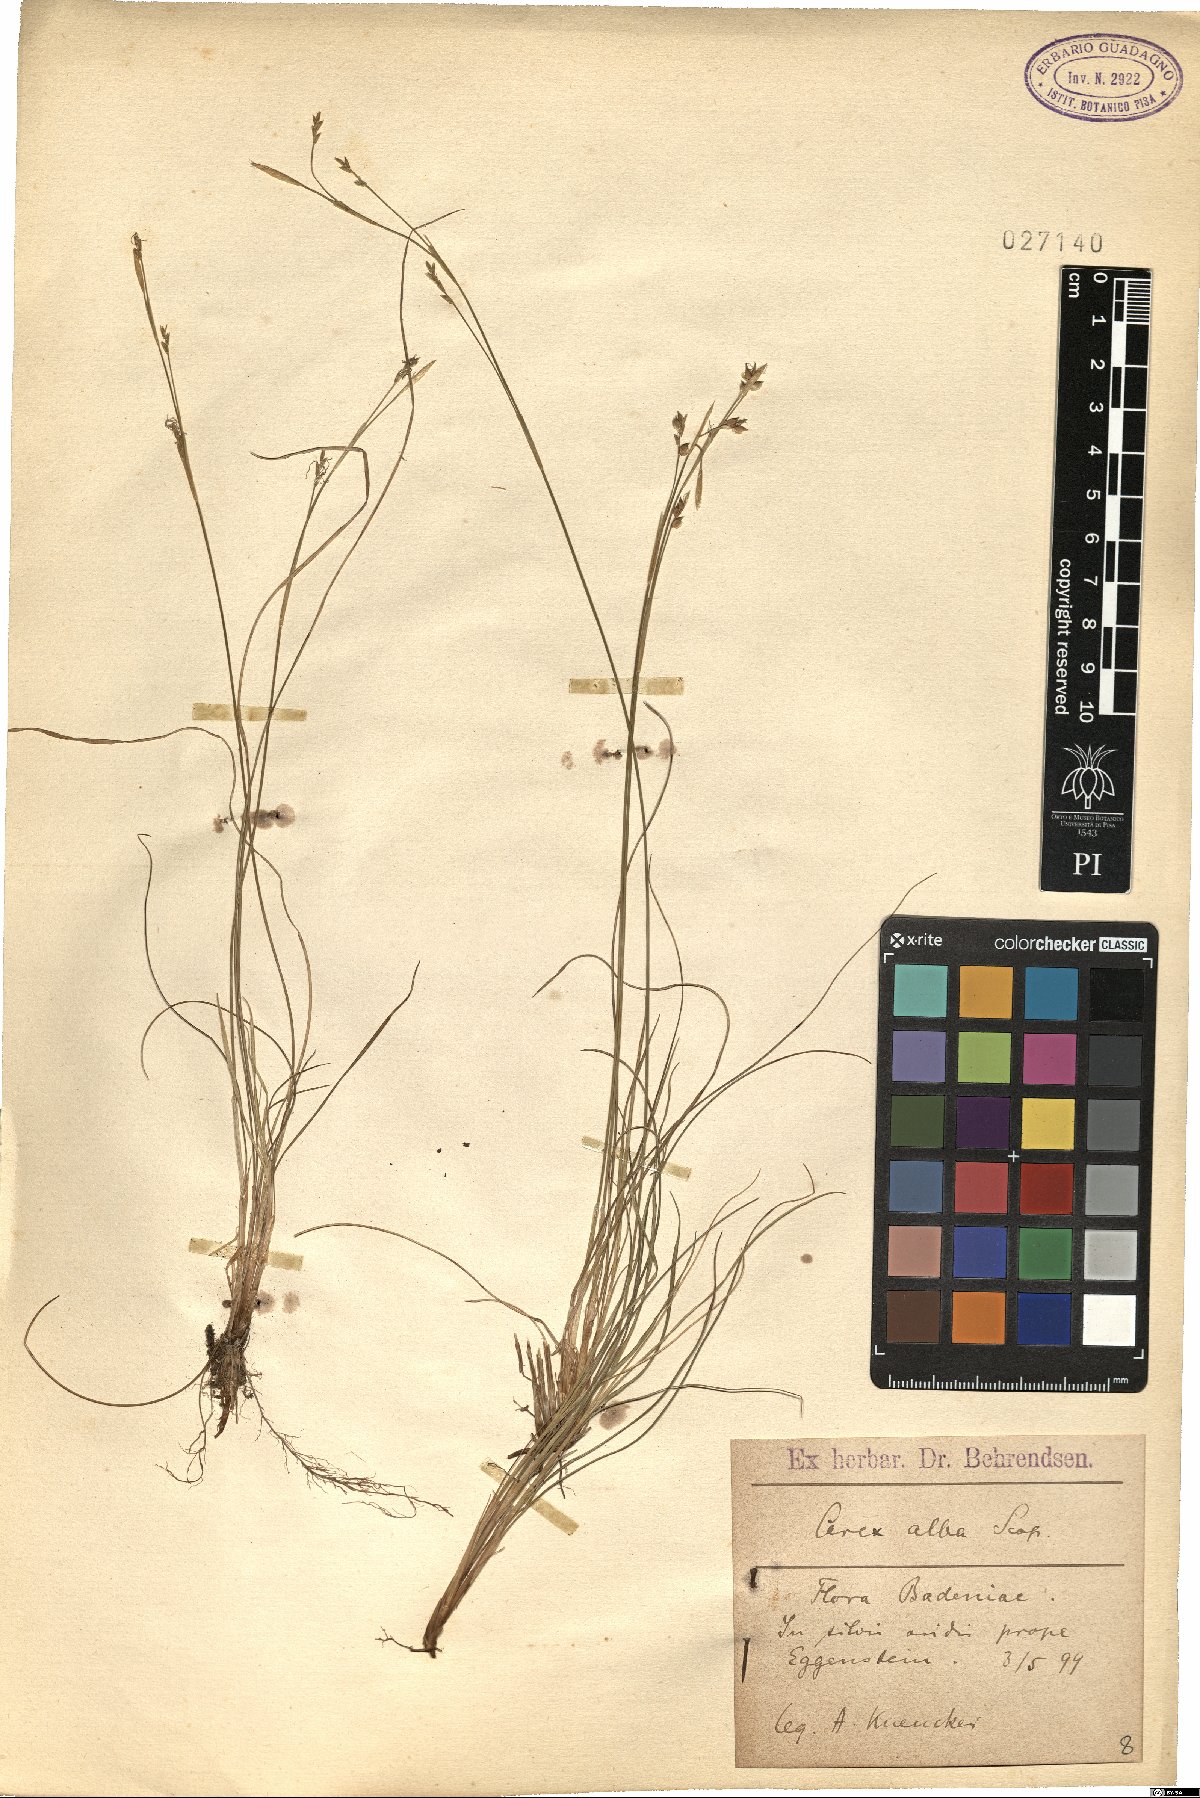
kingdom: Plantae
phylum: Tracheophyta
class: Liliopsida
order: Poales
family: Cyperaceae
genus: Carex
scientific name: Carex alba
